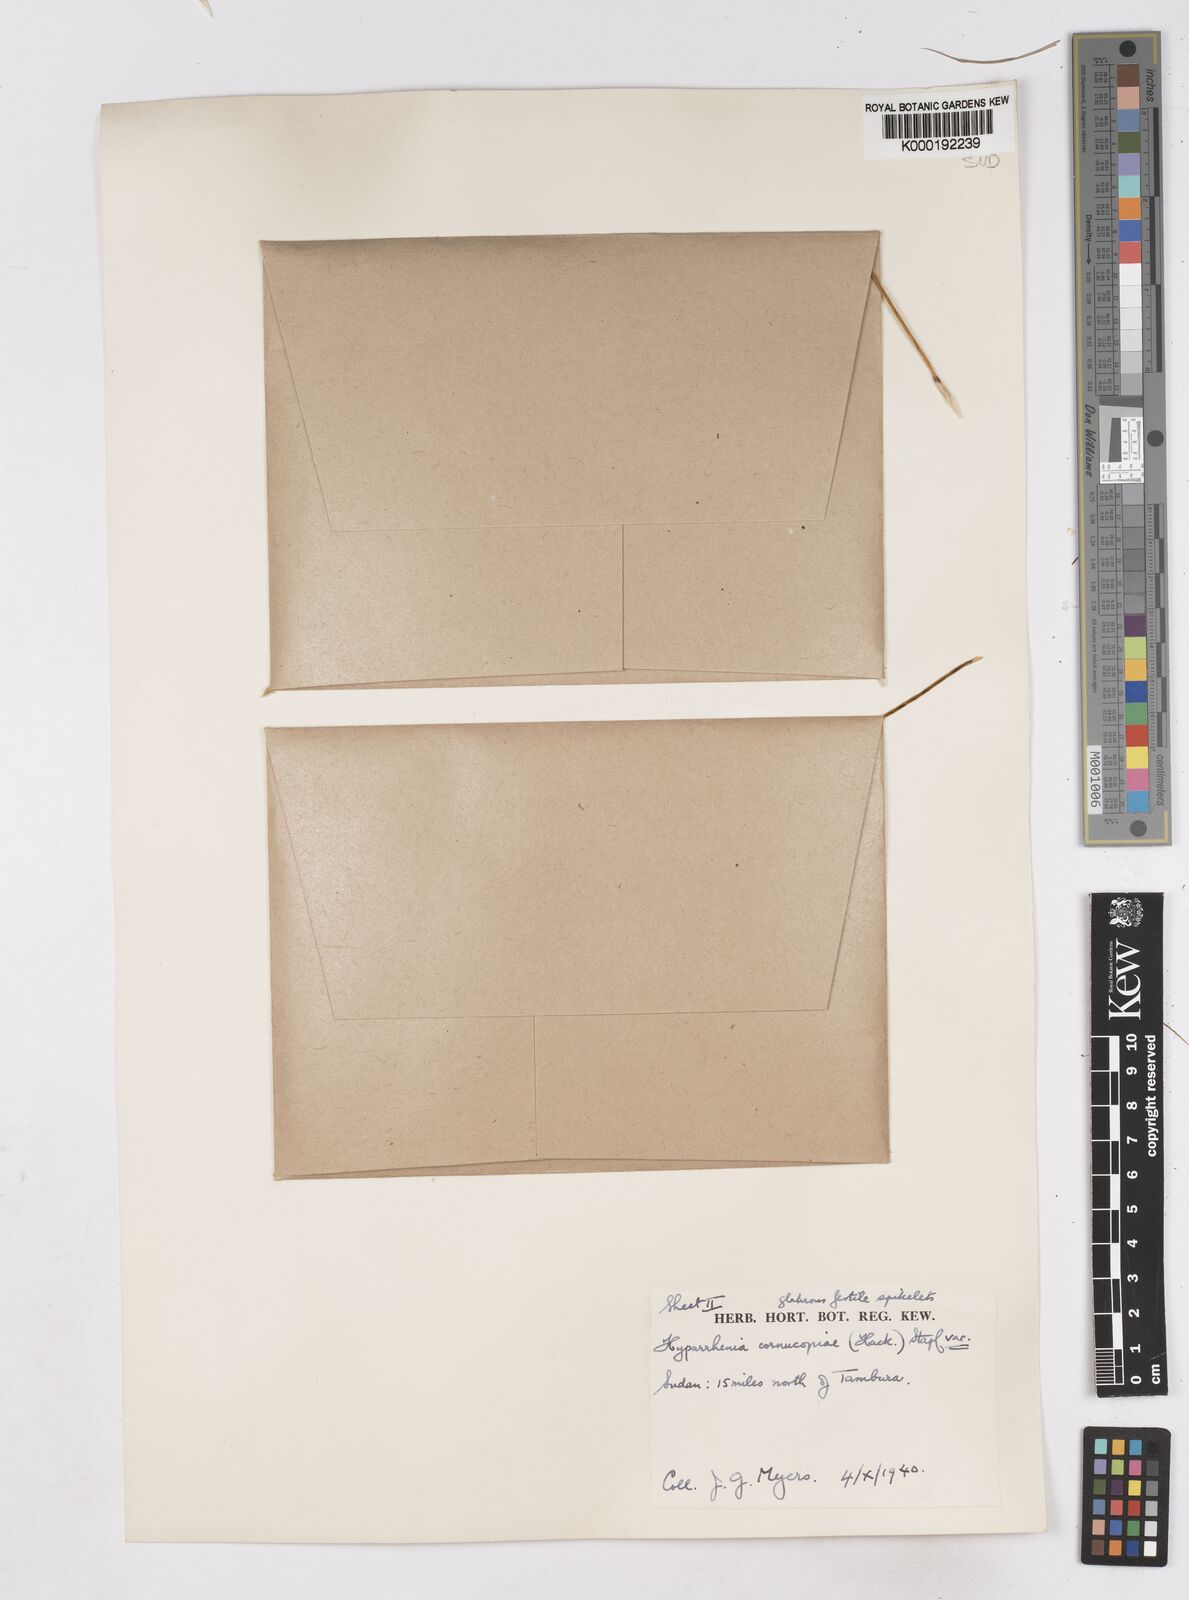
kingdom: Plantae
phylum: Tracheophyta
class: Liliopsida
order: Poales
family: Poaceae
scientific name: Poaceae
